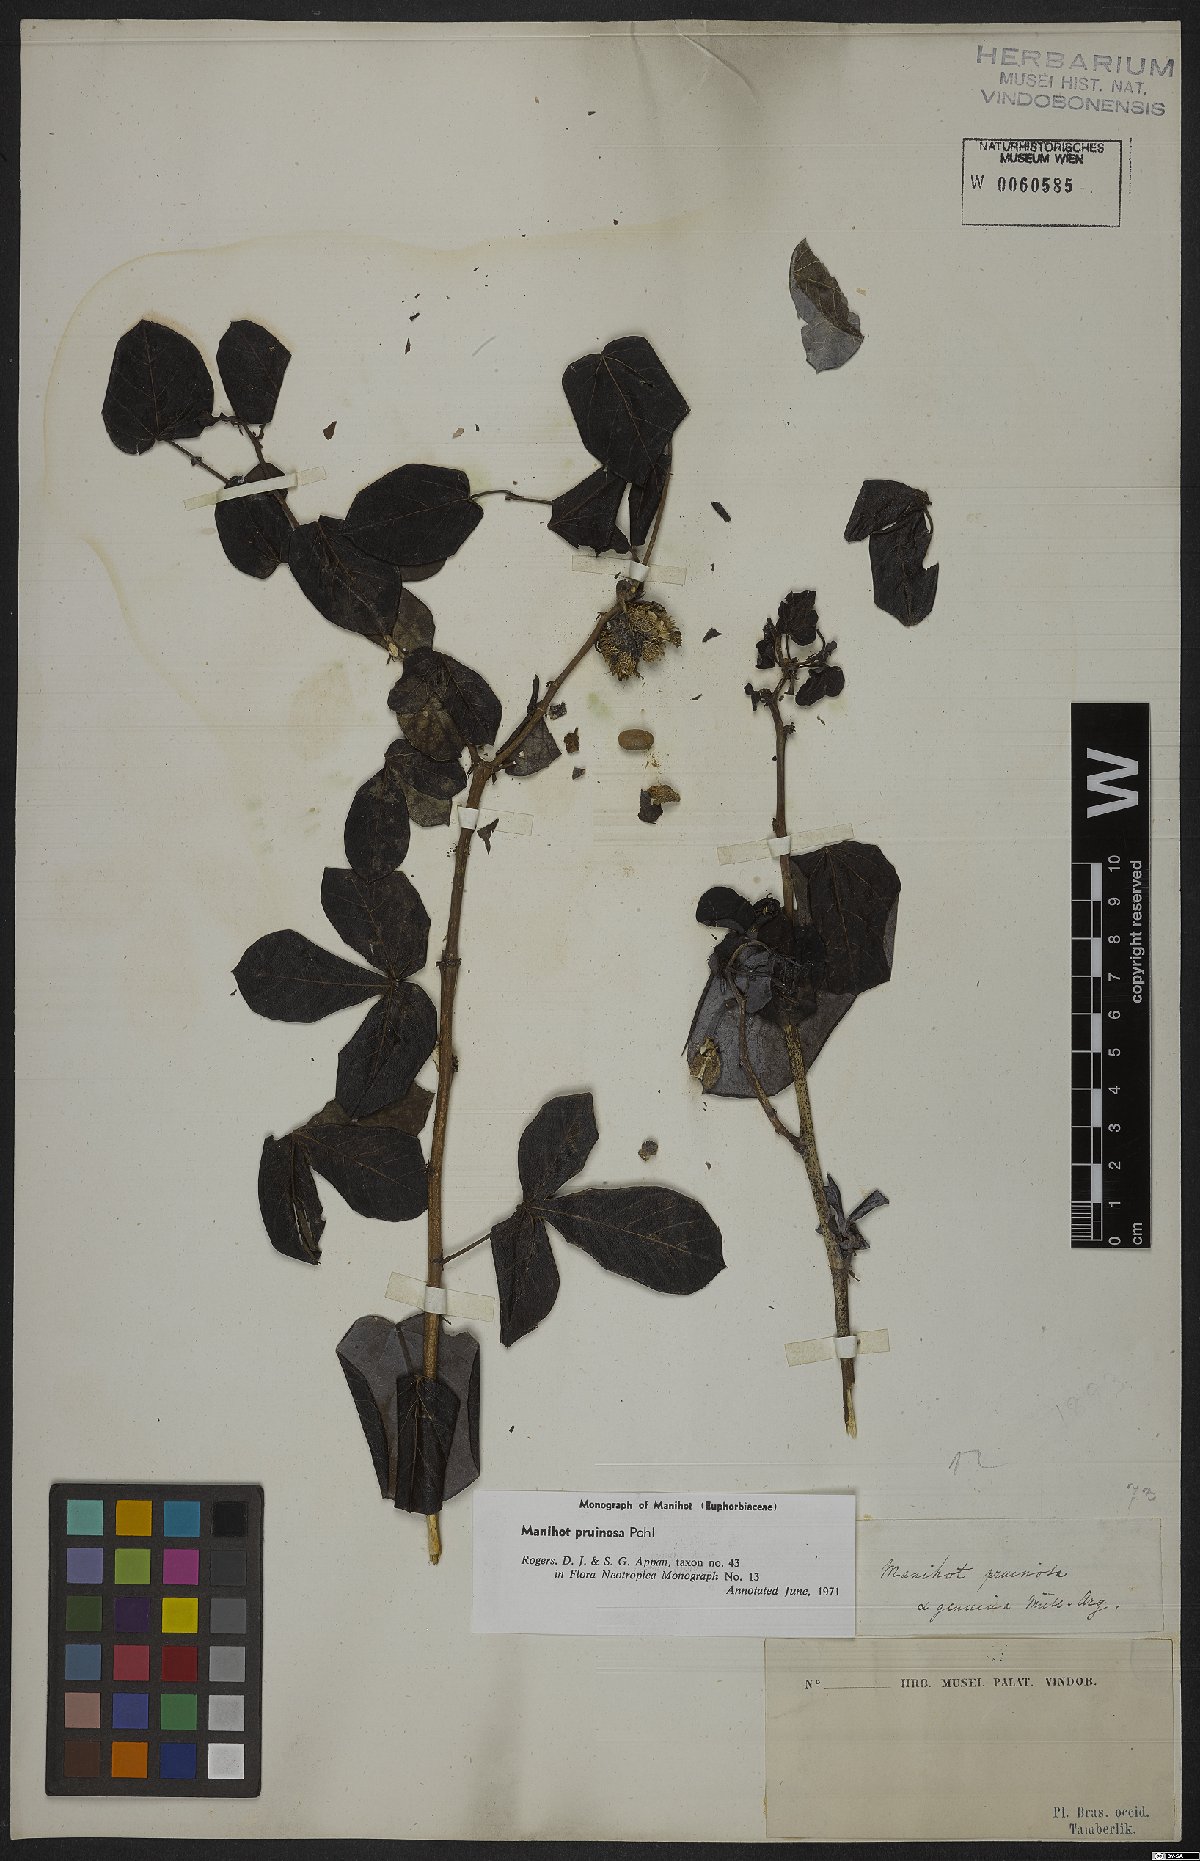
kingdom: Plantae
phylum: Tracheophyta
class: Magnoliopsida
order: Malpighiales
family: Euphorbiaceae
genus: Manihot
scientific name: Manihot pruinosa
